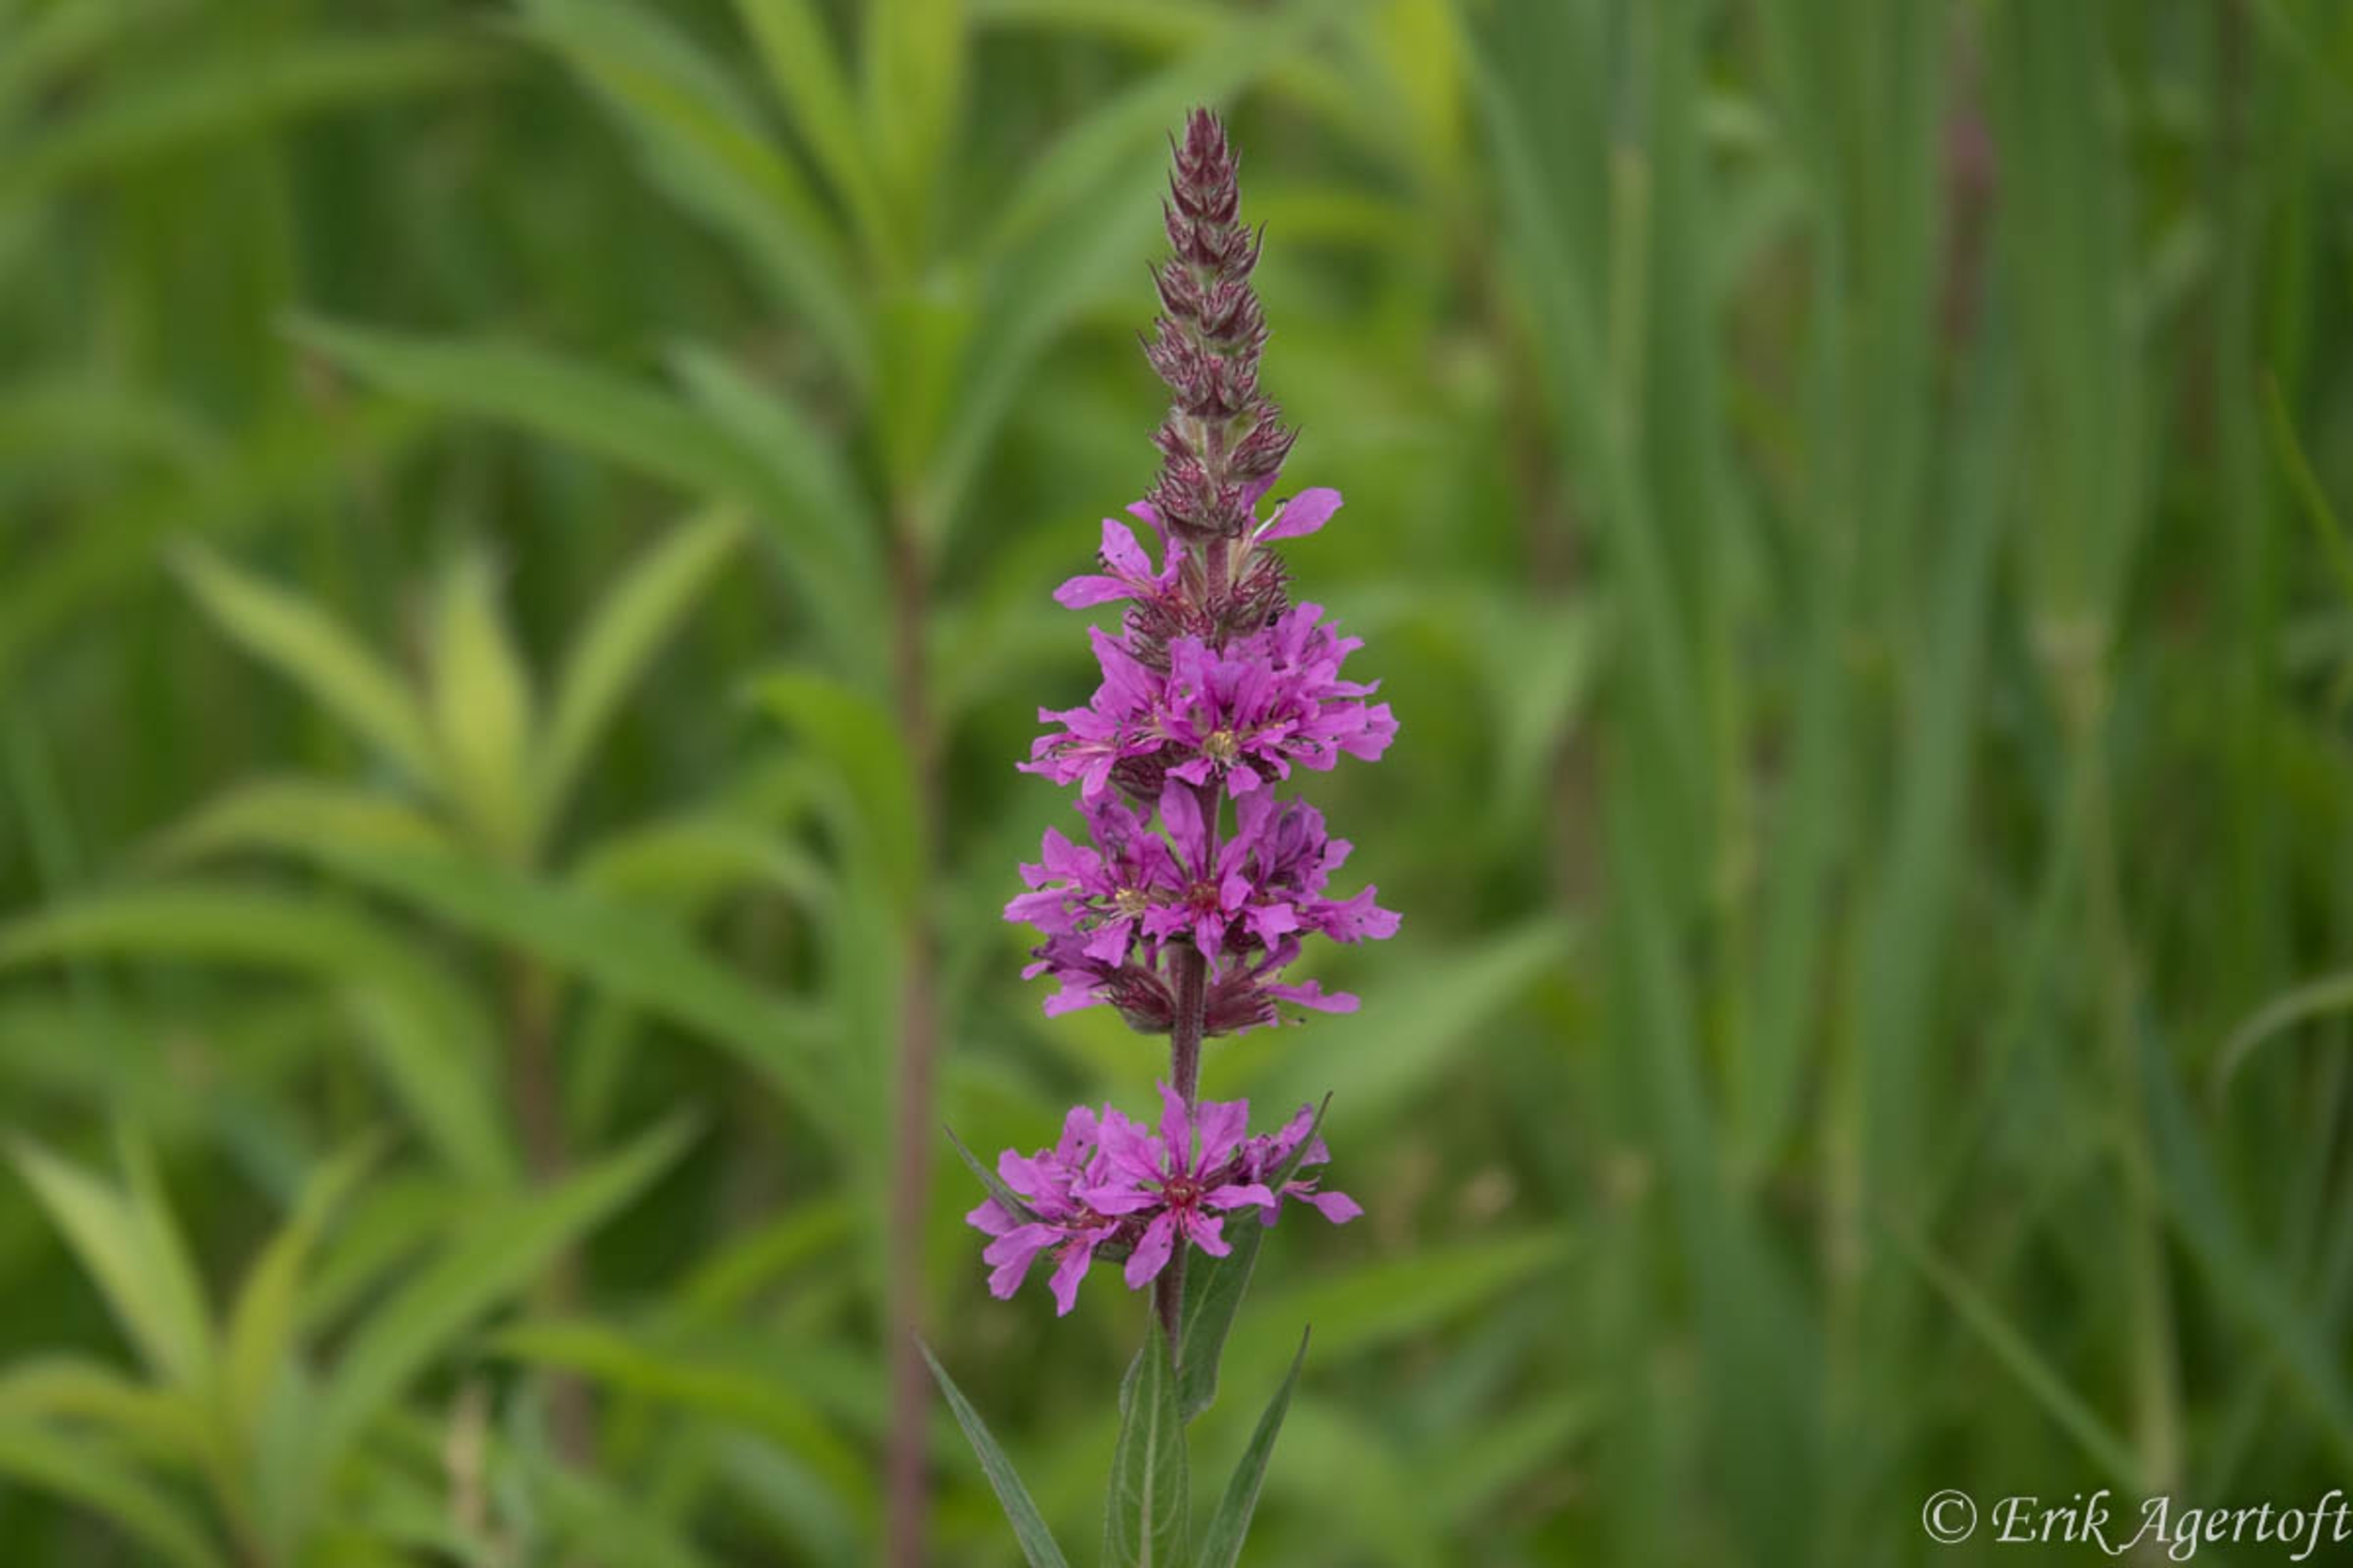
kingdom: Plantae
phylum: Tracheophyta
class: Magnoliopsida
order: Myrtales
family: Lythraceae
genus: Lythrum
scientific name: Lythrum salicaria
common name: Kattehale
